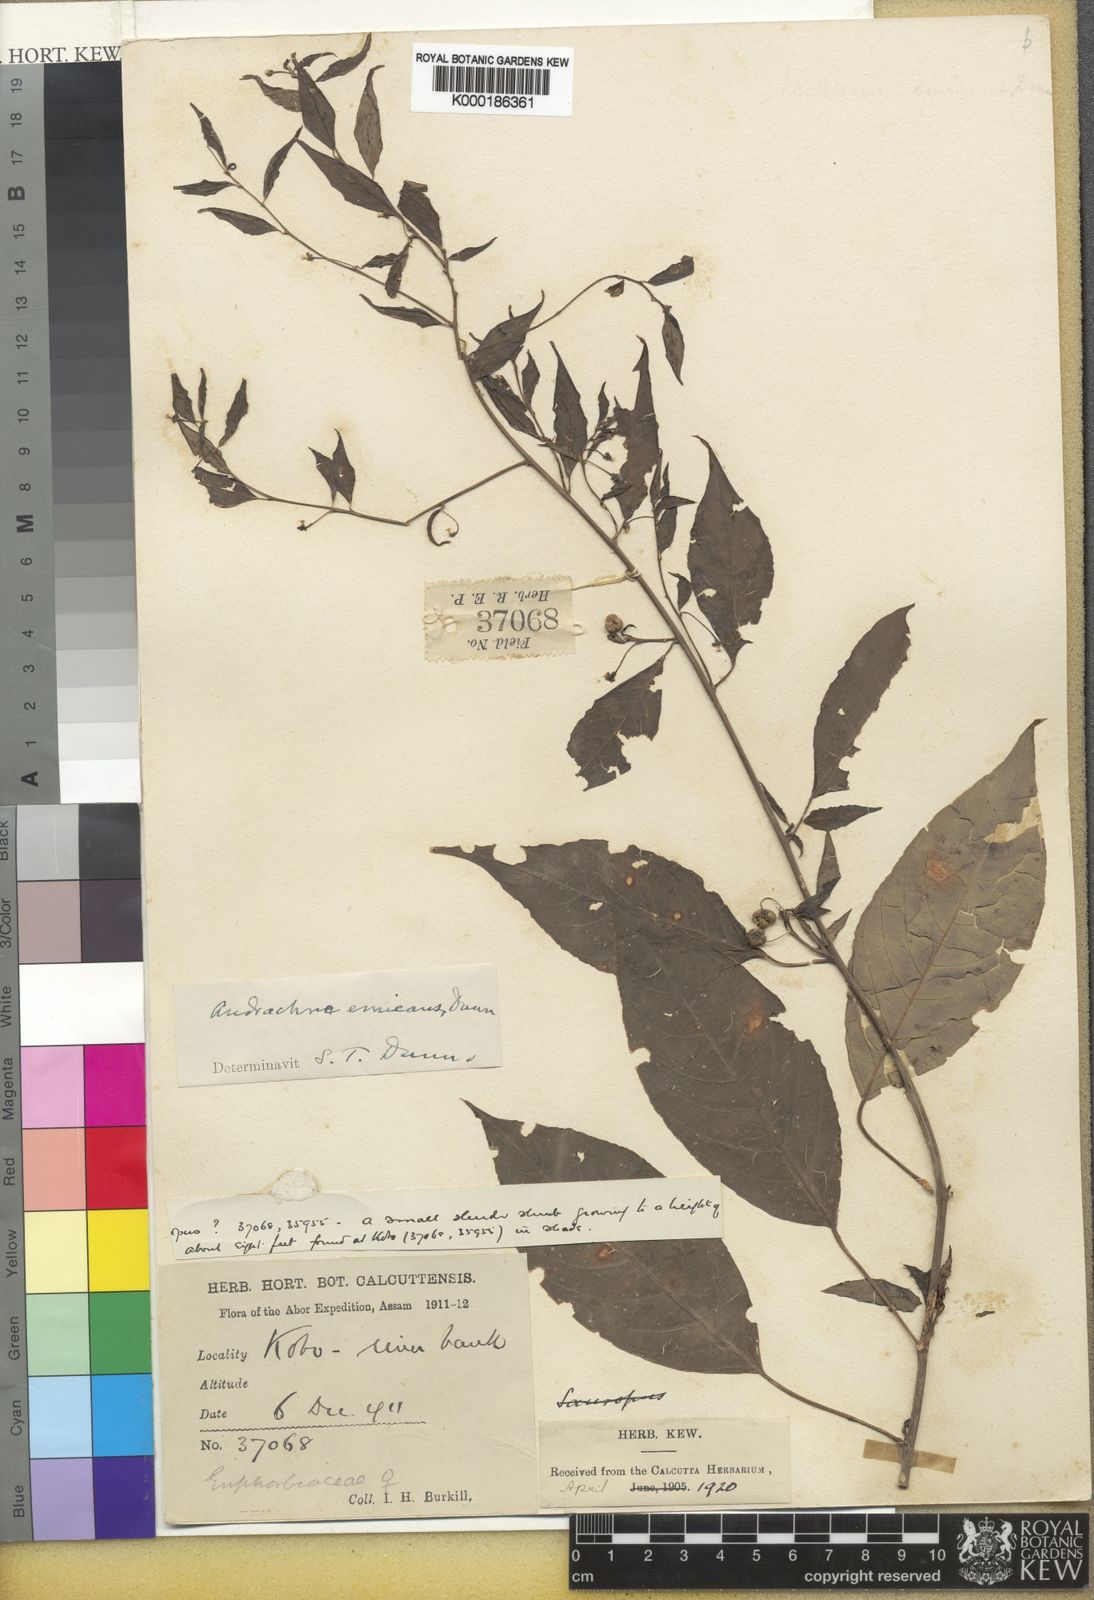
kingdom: Plantae
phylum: Tracheophyta
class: Magnoliopsida
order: Malpighiales
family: Phyllanthaceae
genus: Leptopus
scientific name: Leptopus emicans
